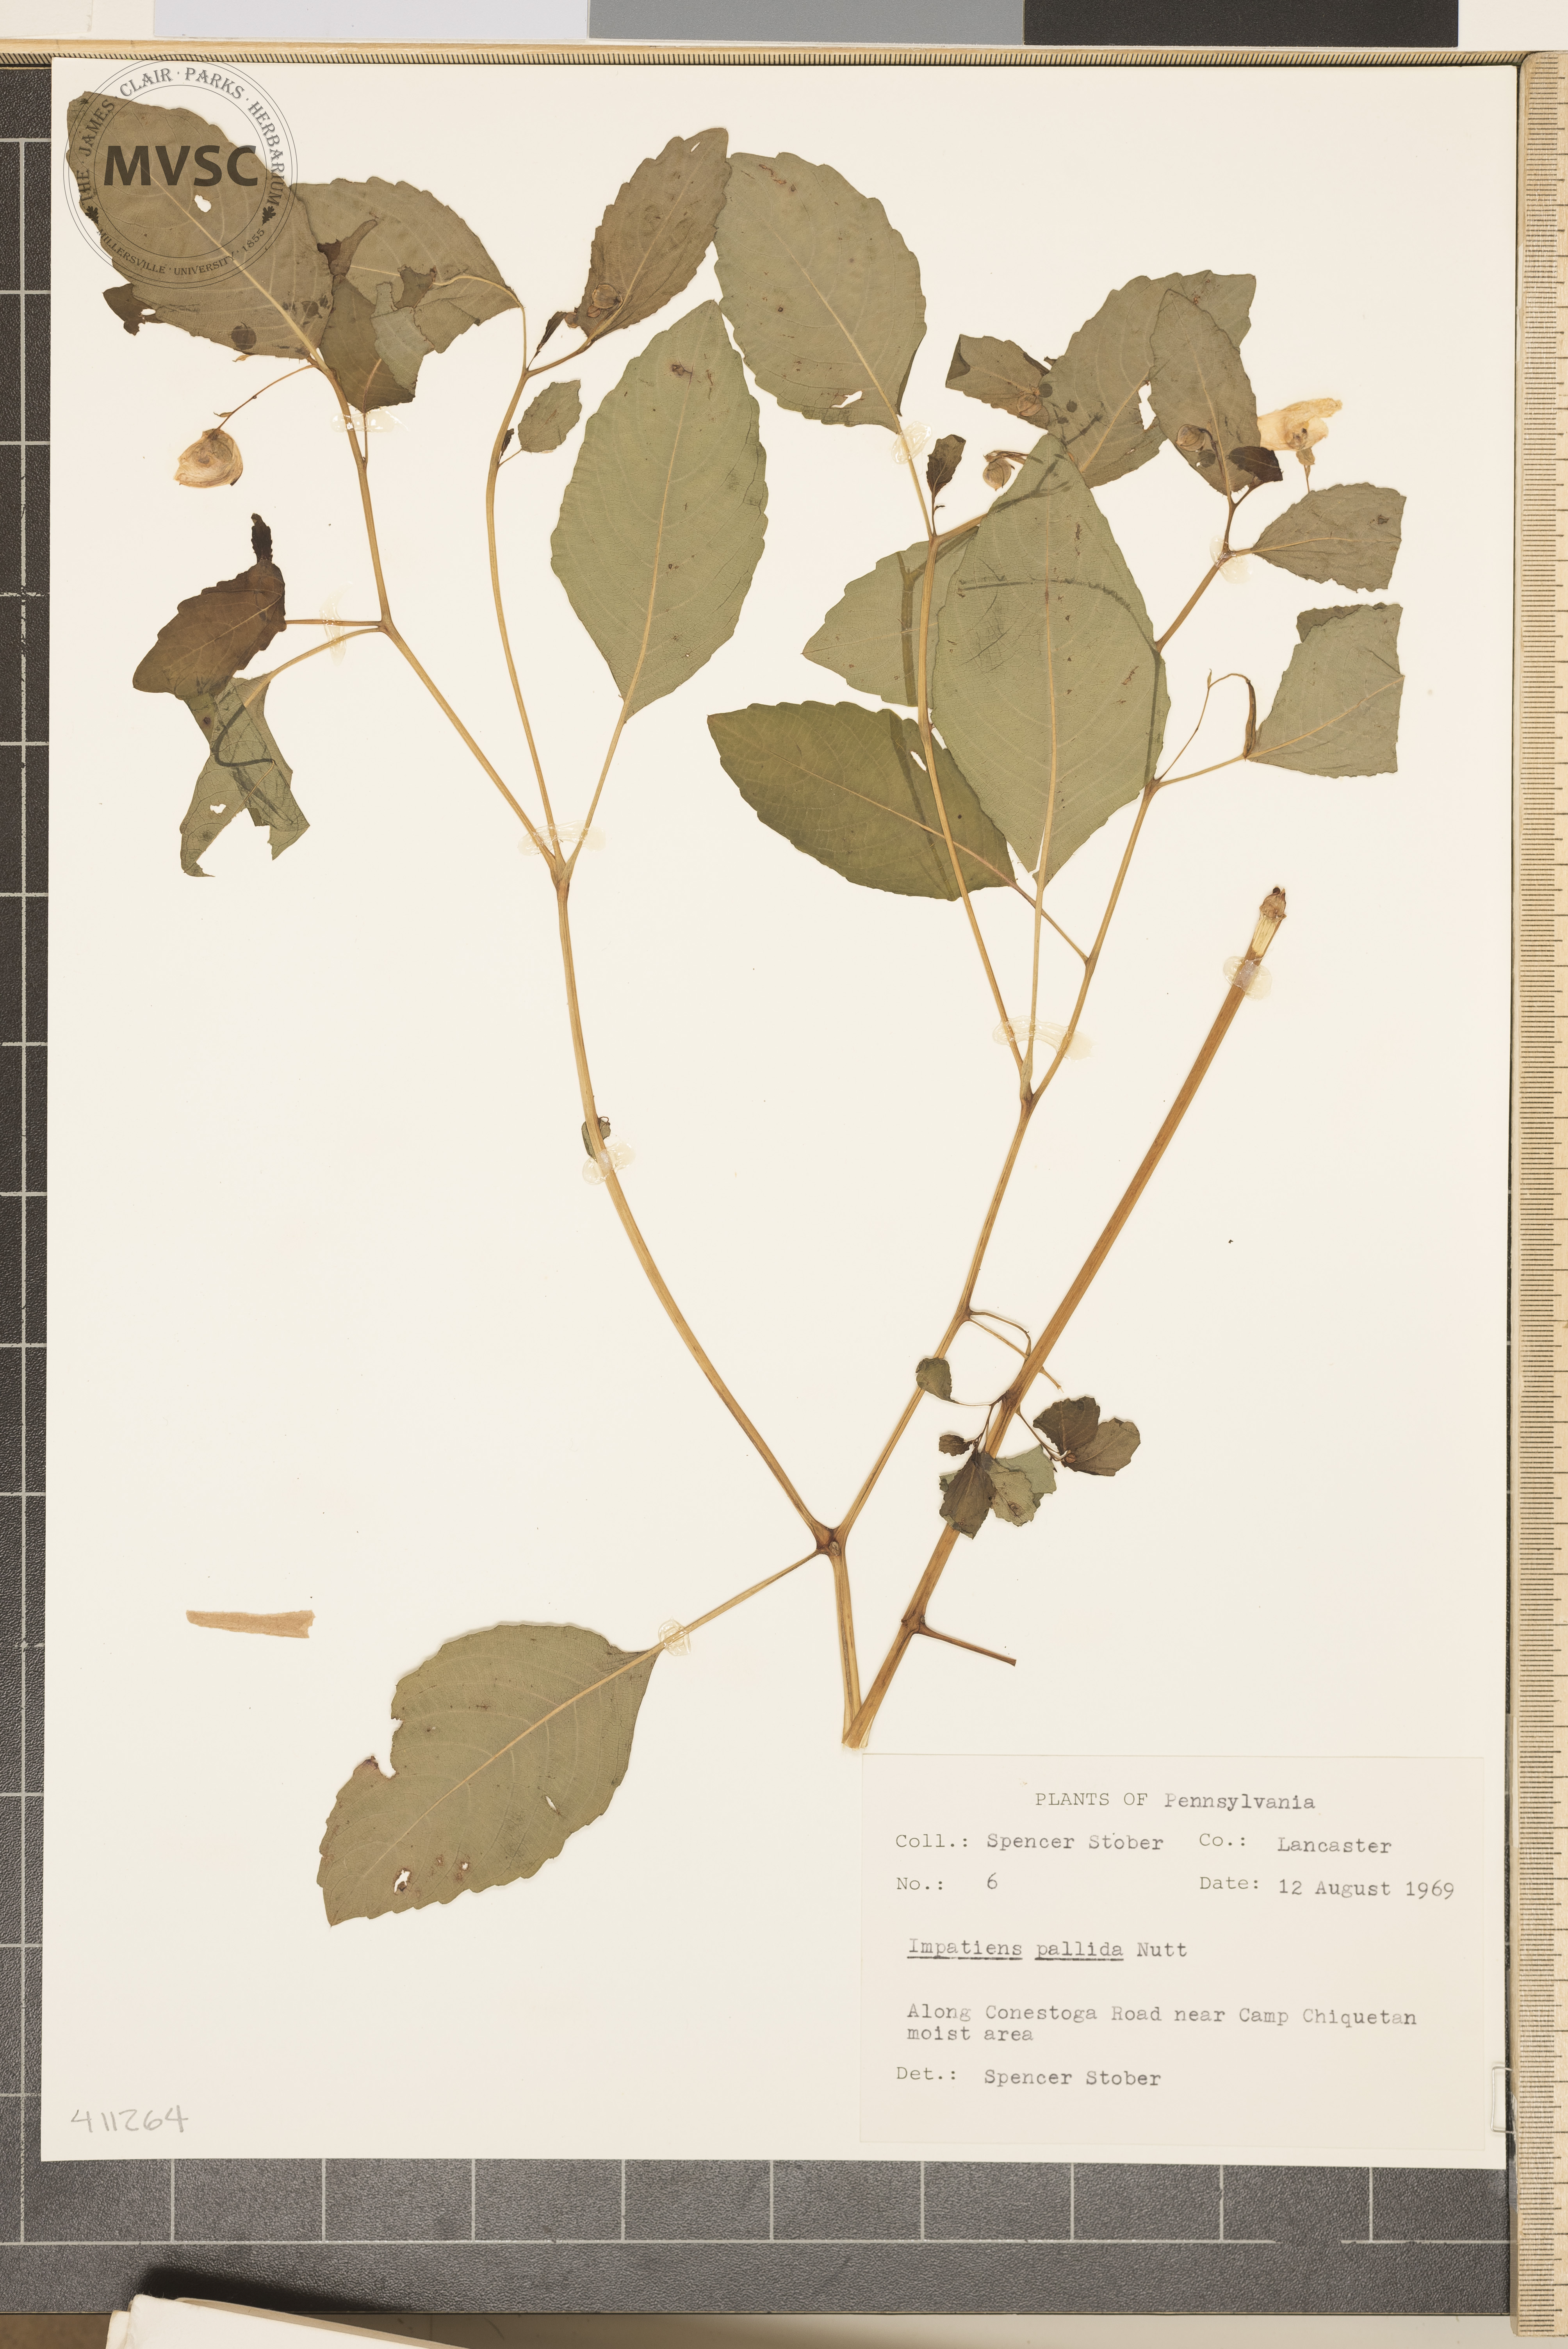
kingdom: Plantae
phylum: Tracheophyta
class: Magnoliopsida
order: Ericales
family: Balsaminaceae
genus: Impatiens
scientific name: Impatiens pallida
